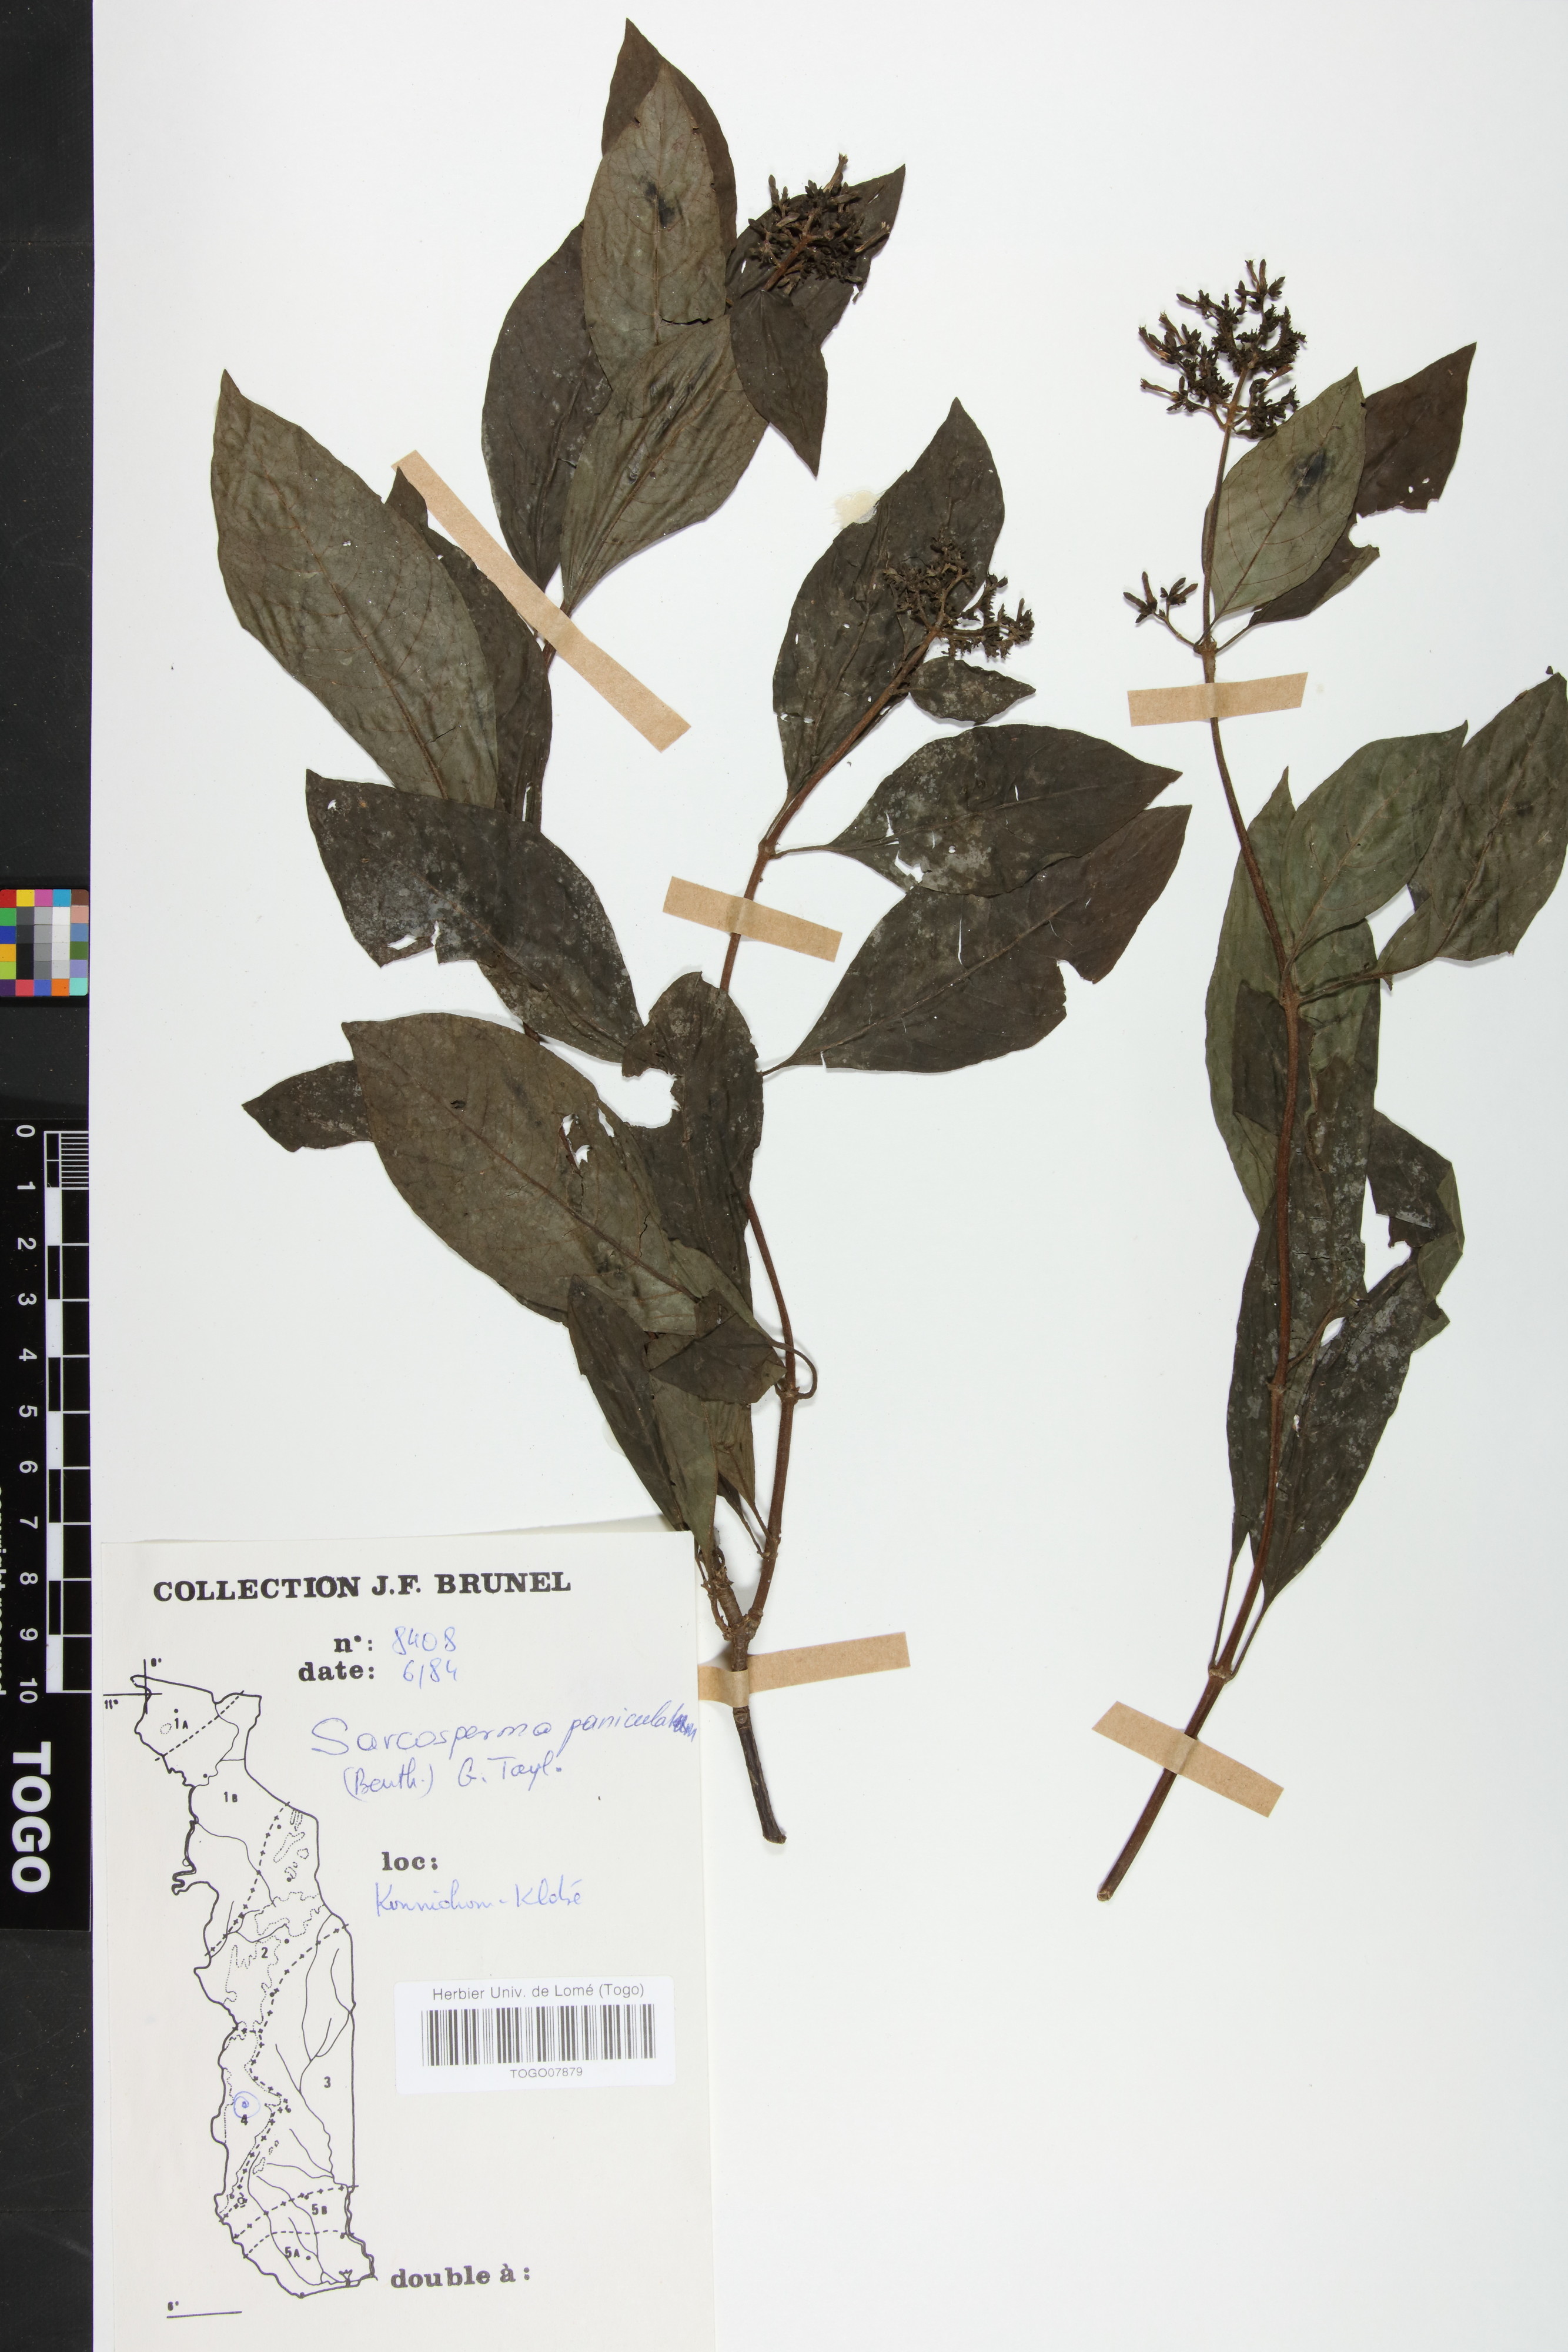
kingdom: Plantae
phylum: Tracheophyta
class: Magnoliopsida
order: Gentianales
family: Rubiaceae
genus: Sacosperma
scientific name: Sacosperma paniculatum
